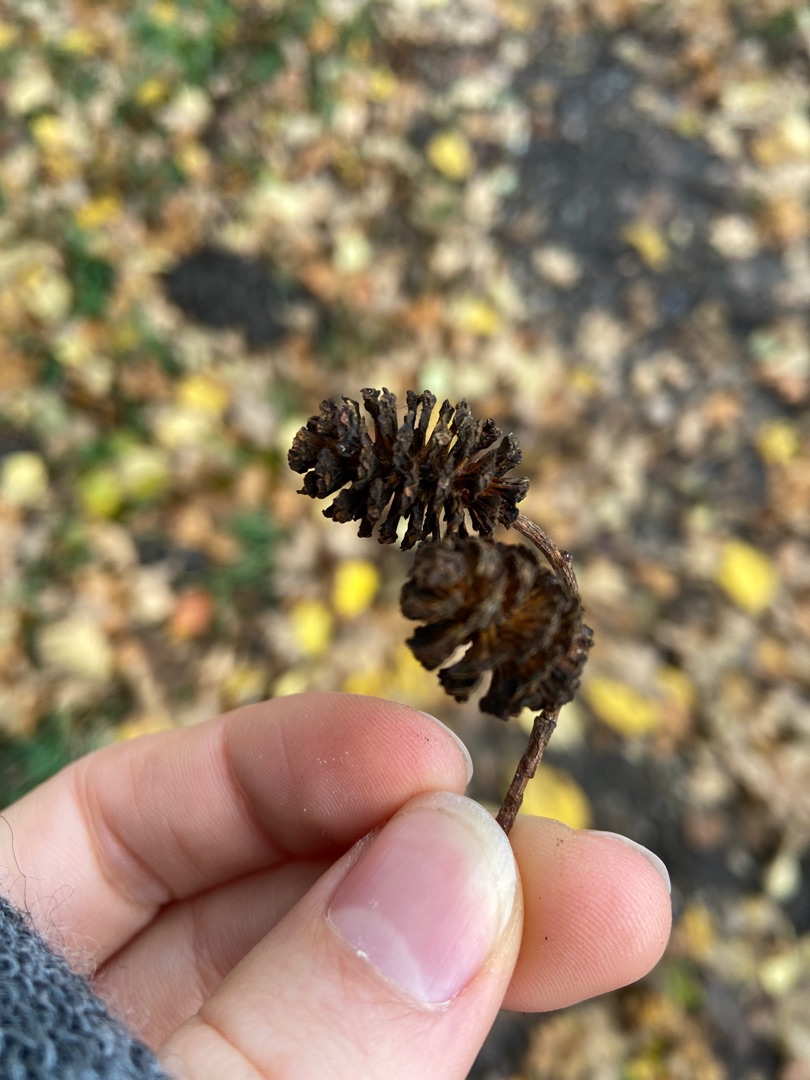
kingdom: Plantae
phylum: Tracheophyta
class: Magnoliopsida
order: Fagales
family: Betulaceae
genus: Alnus
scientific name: Alnus
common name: Elleslægten
